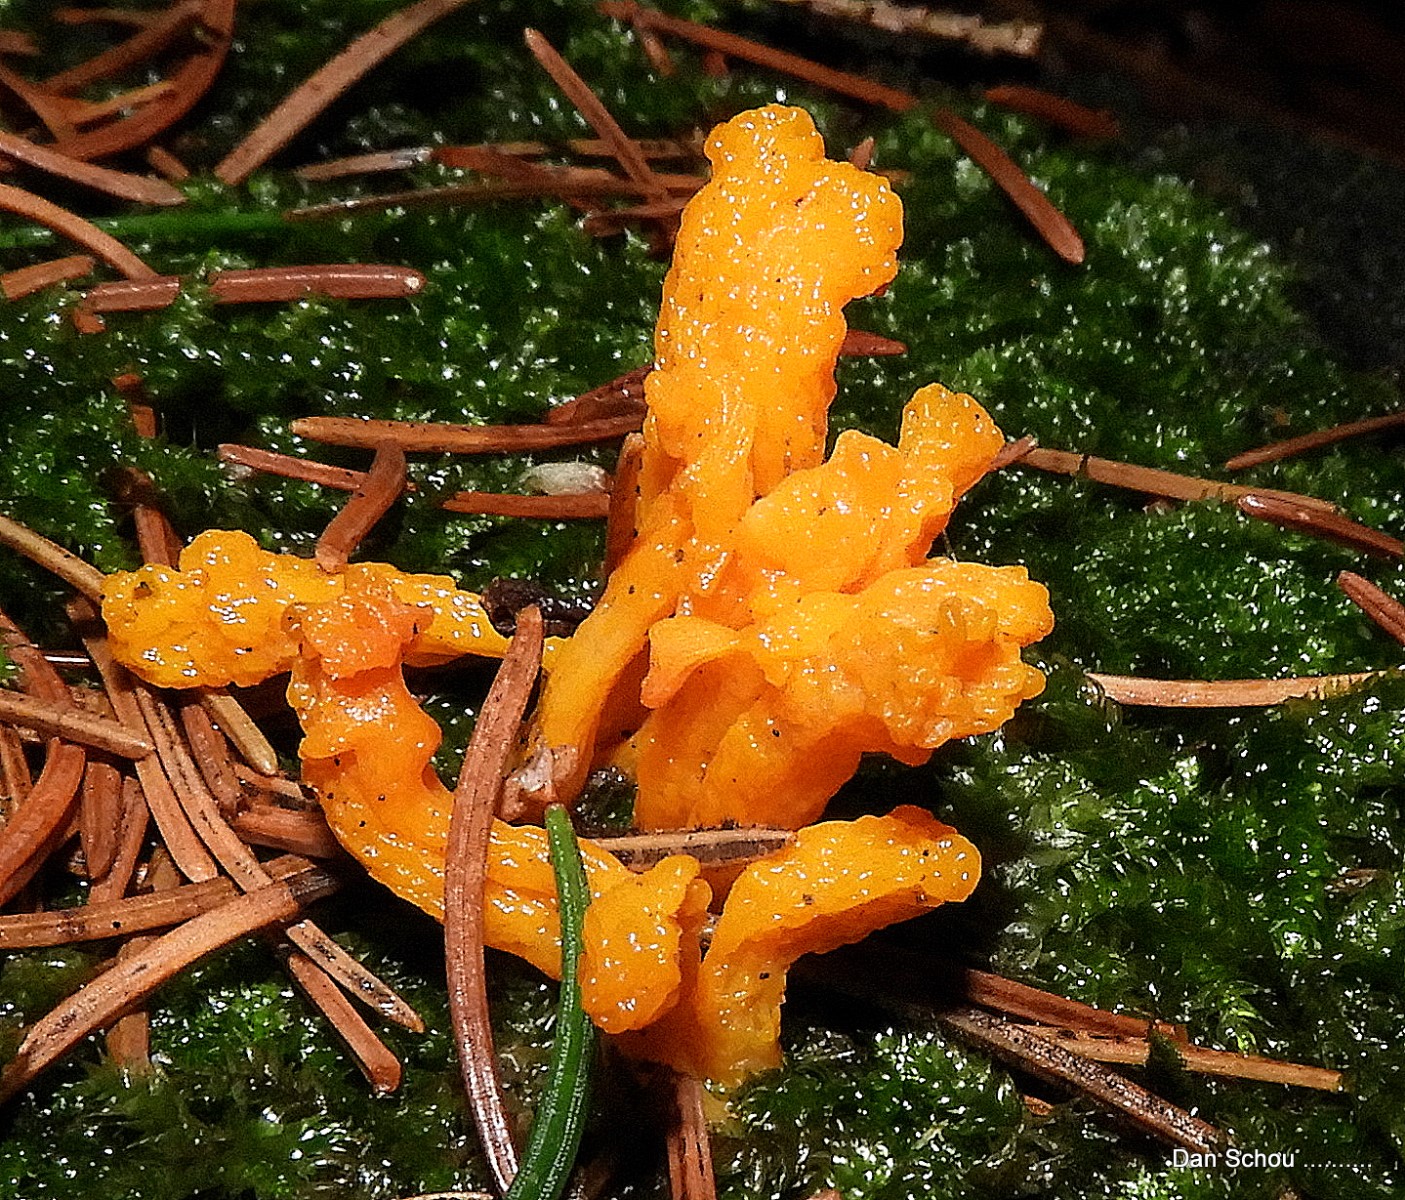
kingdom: Fungi
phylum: Basidiomycota
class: Dacrymycetes
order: Dacrymycetales
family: Dacrymycetaceae
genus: Calocera
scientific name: Calocera
